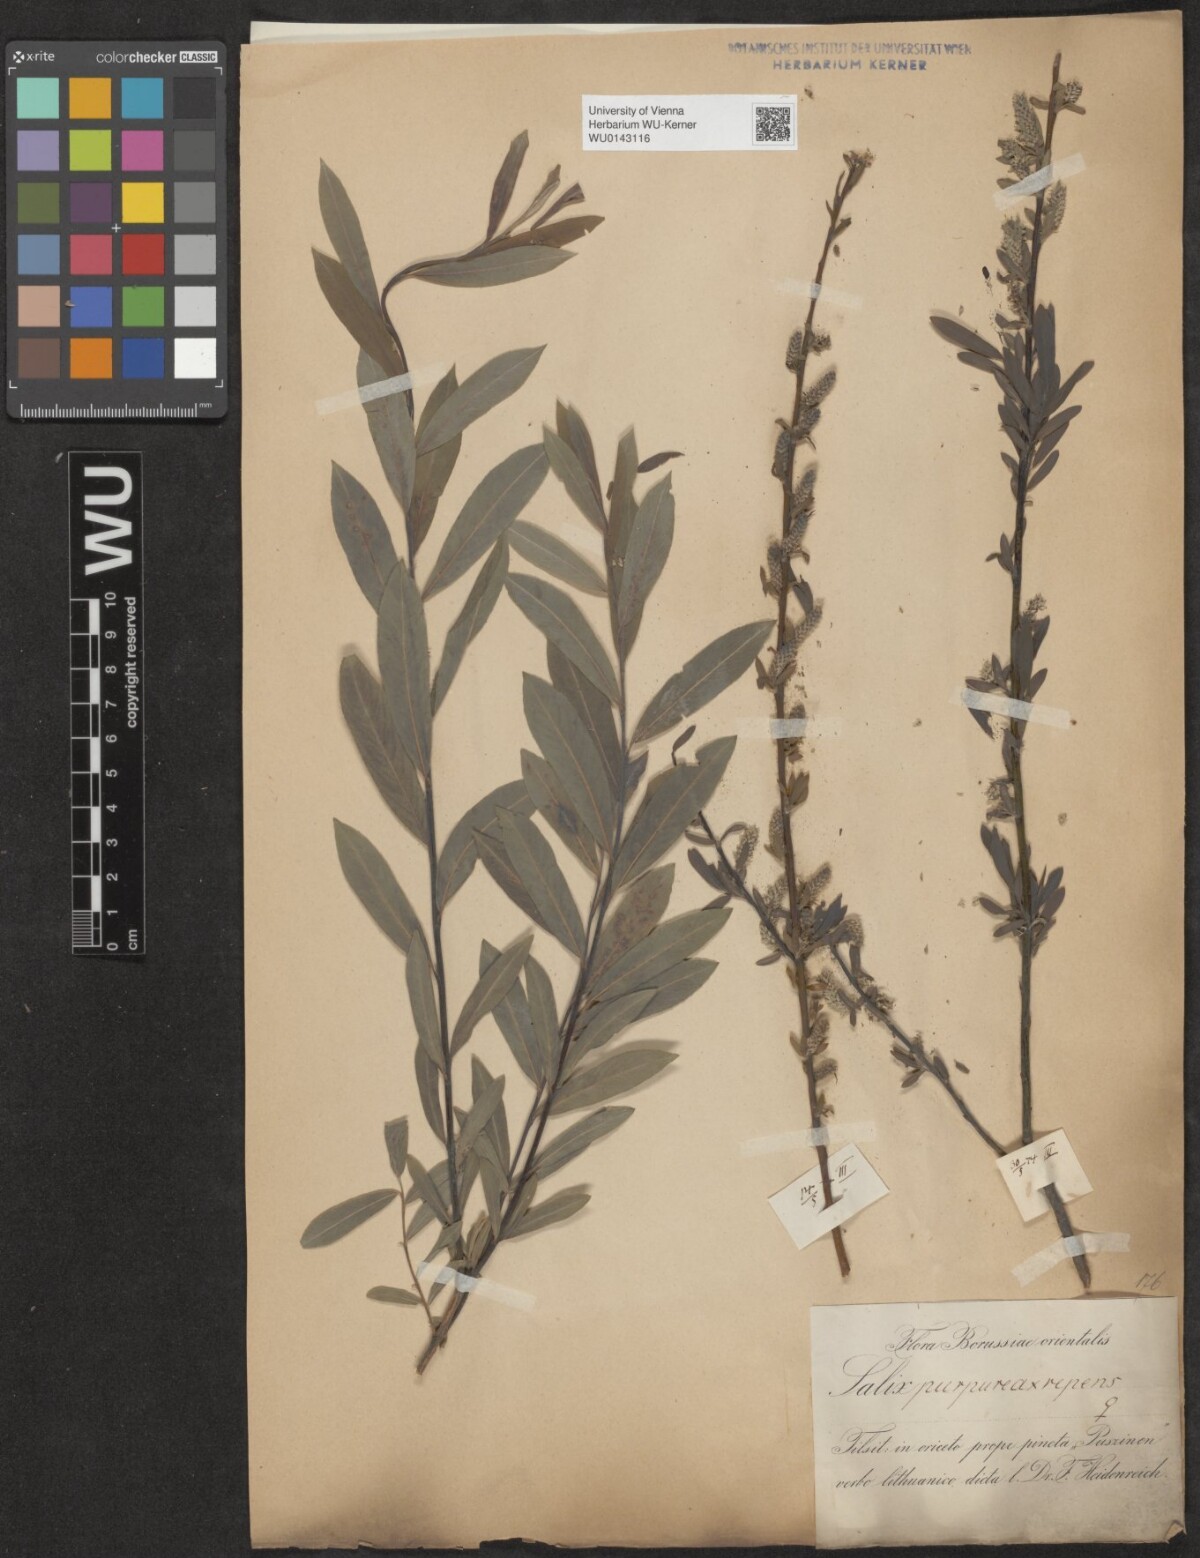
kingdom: Plantae
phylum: Tracheophyta
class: Magnoliopsida
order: Malpighiales
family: Salicaceae
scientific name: Salicaceae
